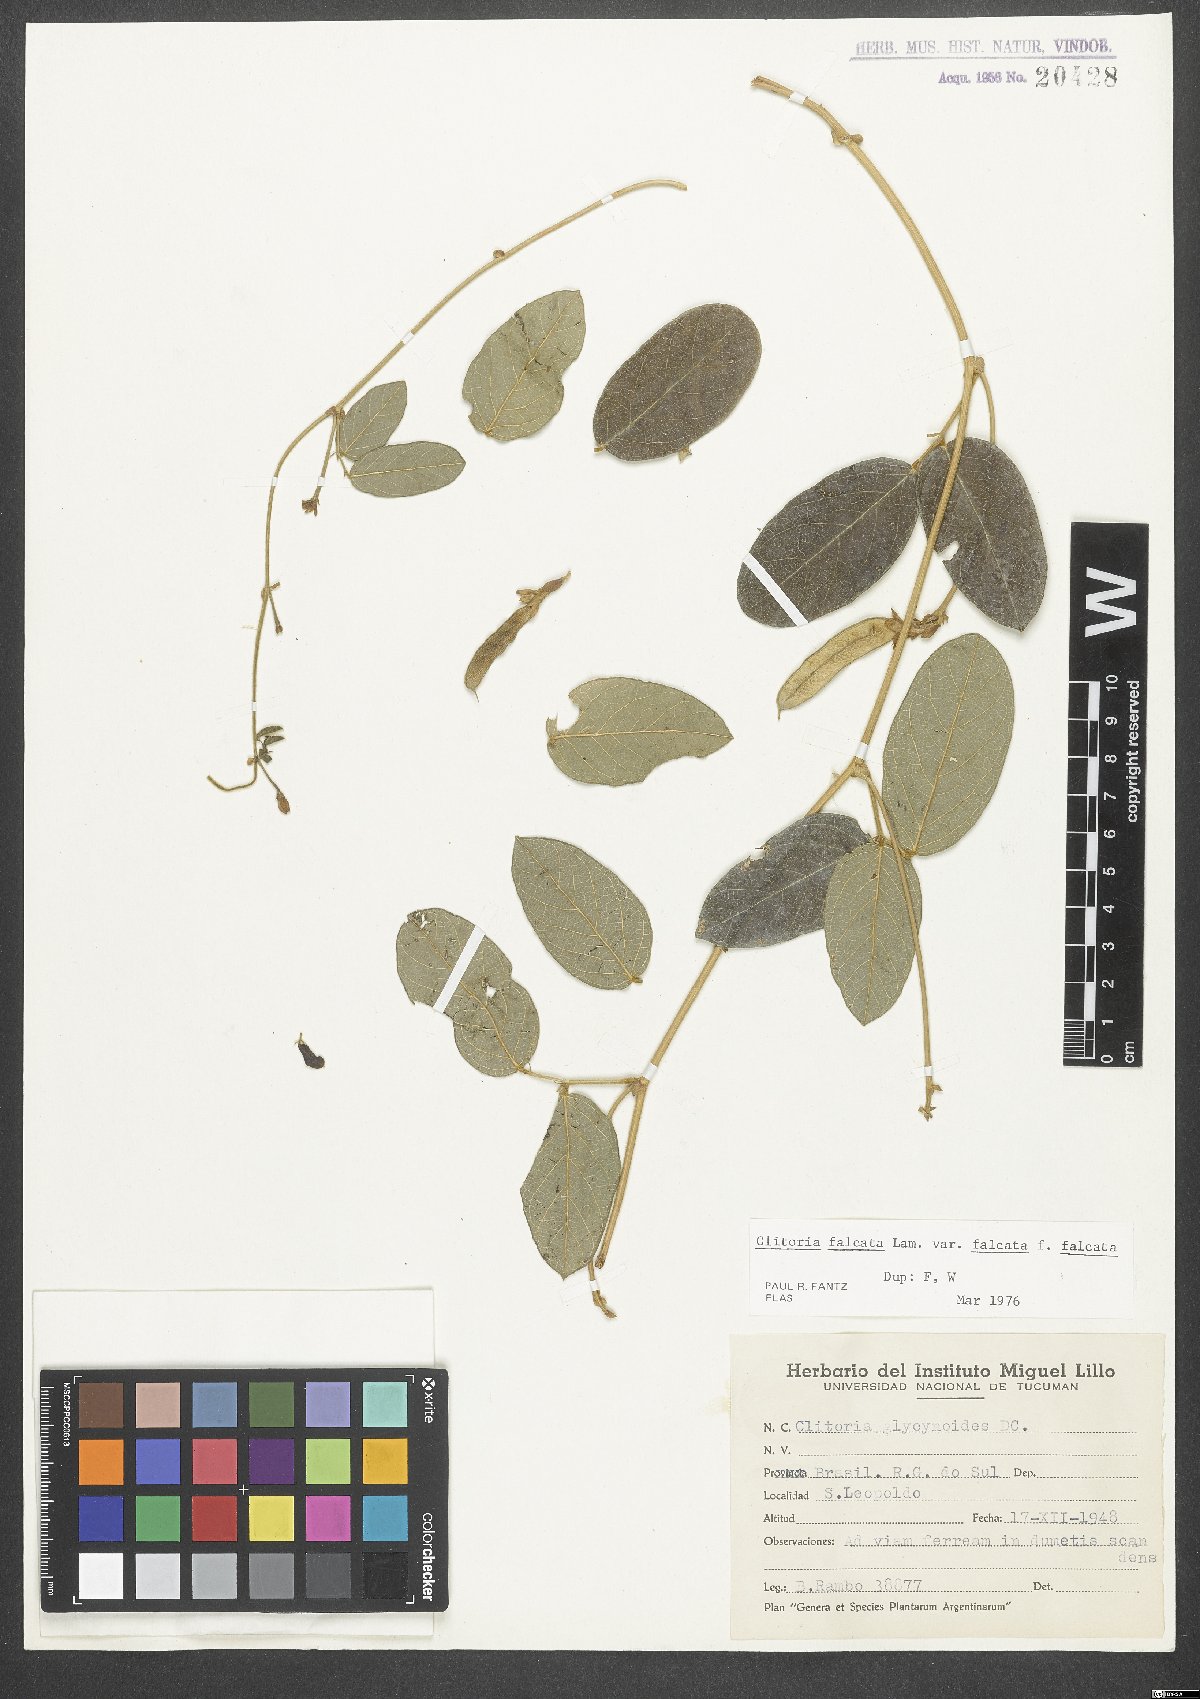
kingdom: Plantae
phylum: Tracheophyta
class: Magnoliopsida
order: Fabales
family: Fabaceae
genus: Clitoria
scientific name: Clitoria falcata
